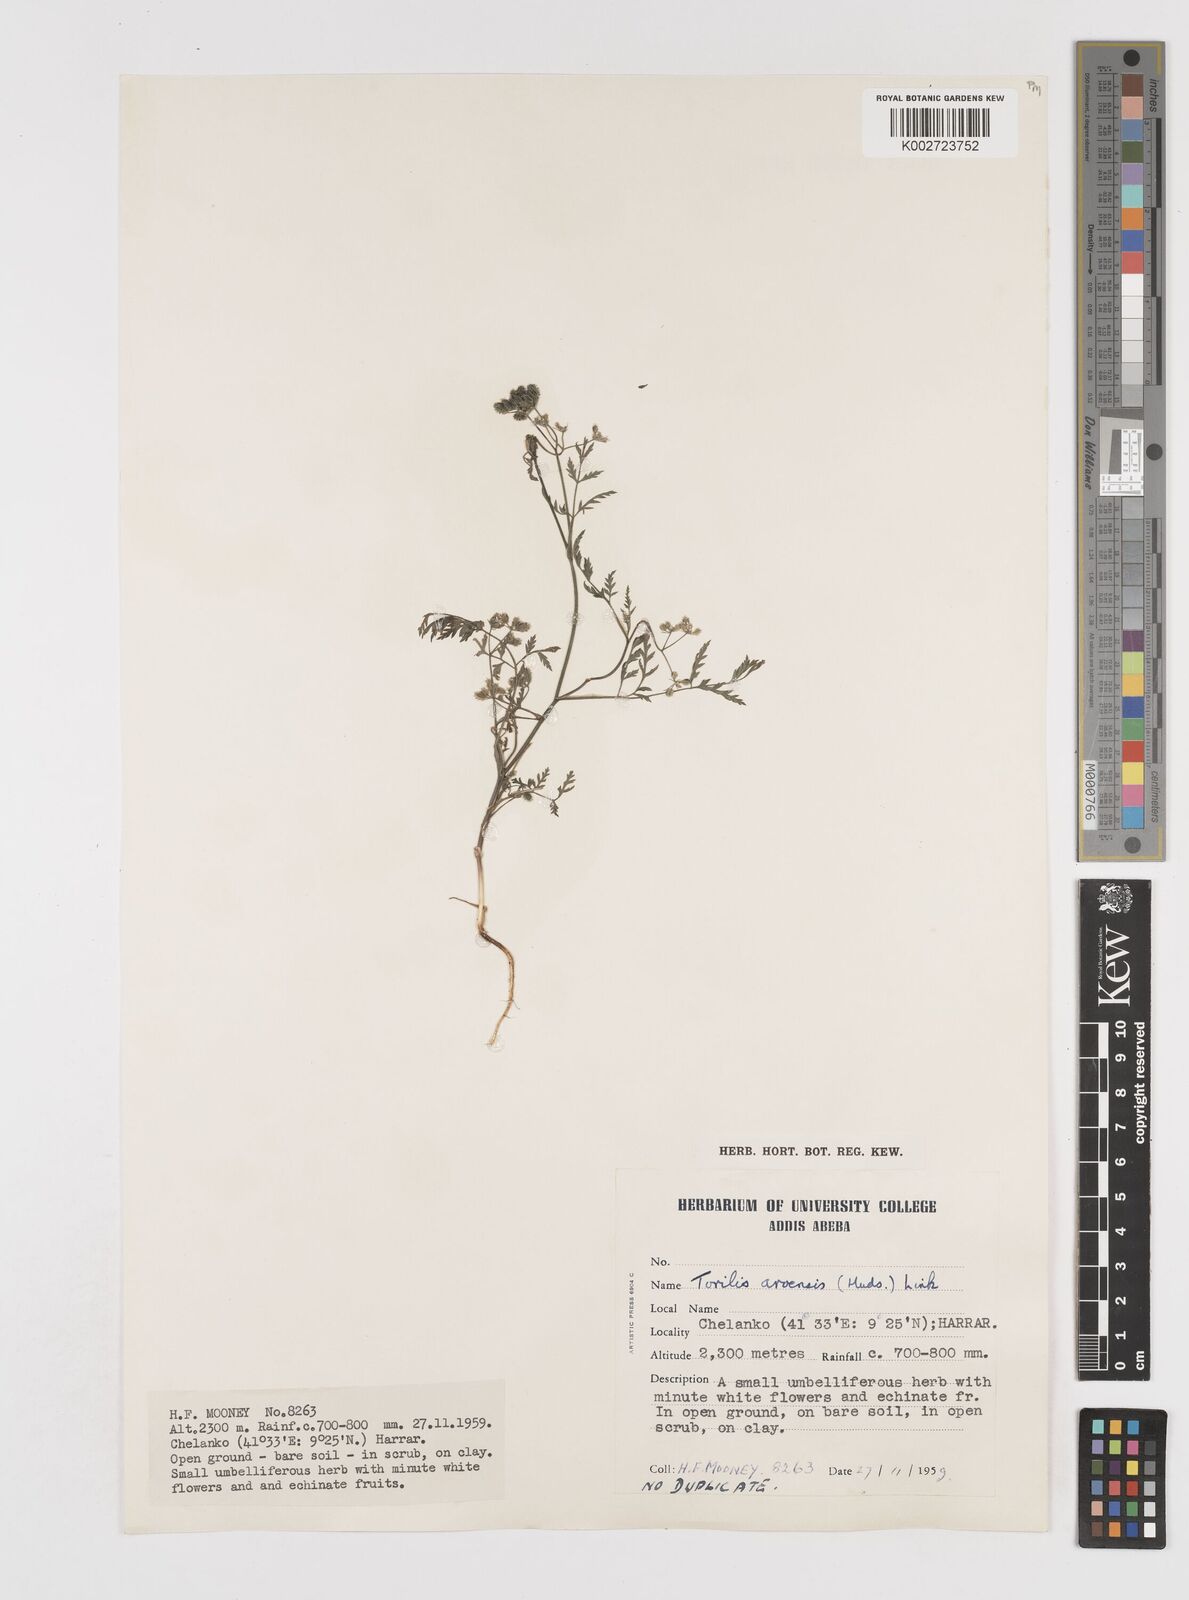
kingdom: Plantae
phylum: Tracheophyta
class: Magnoliopsida
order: Apiales
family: Apiaceae
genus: Torilis
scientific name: Torilis arvensis
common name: Spreading hedge-parsley
